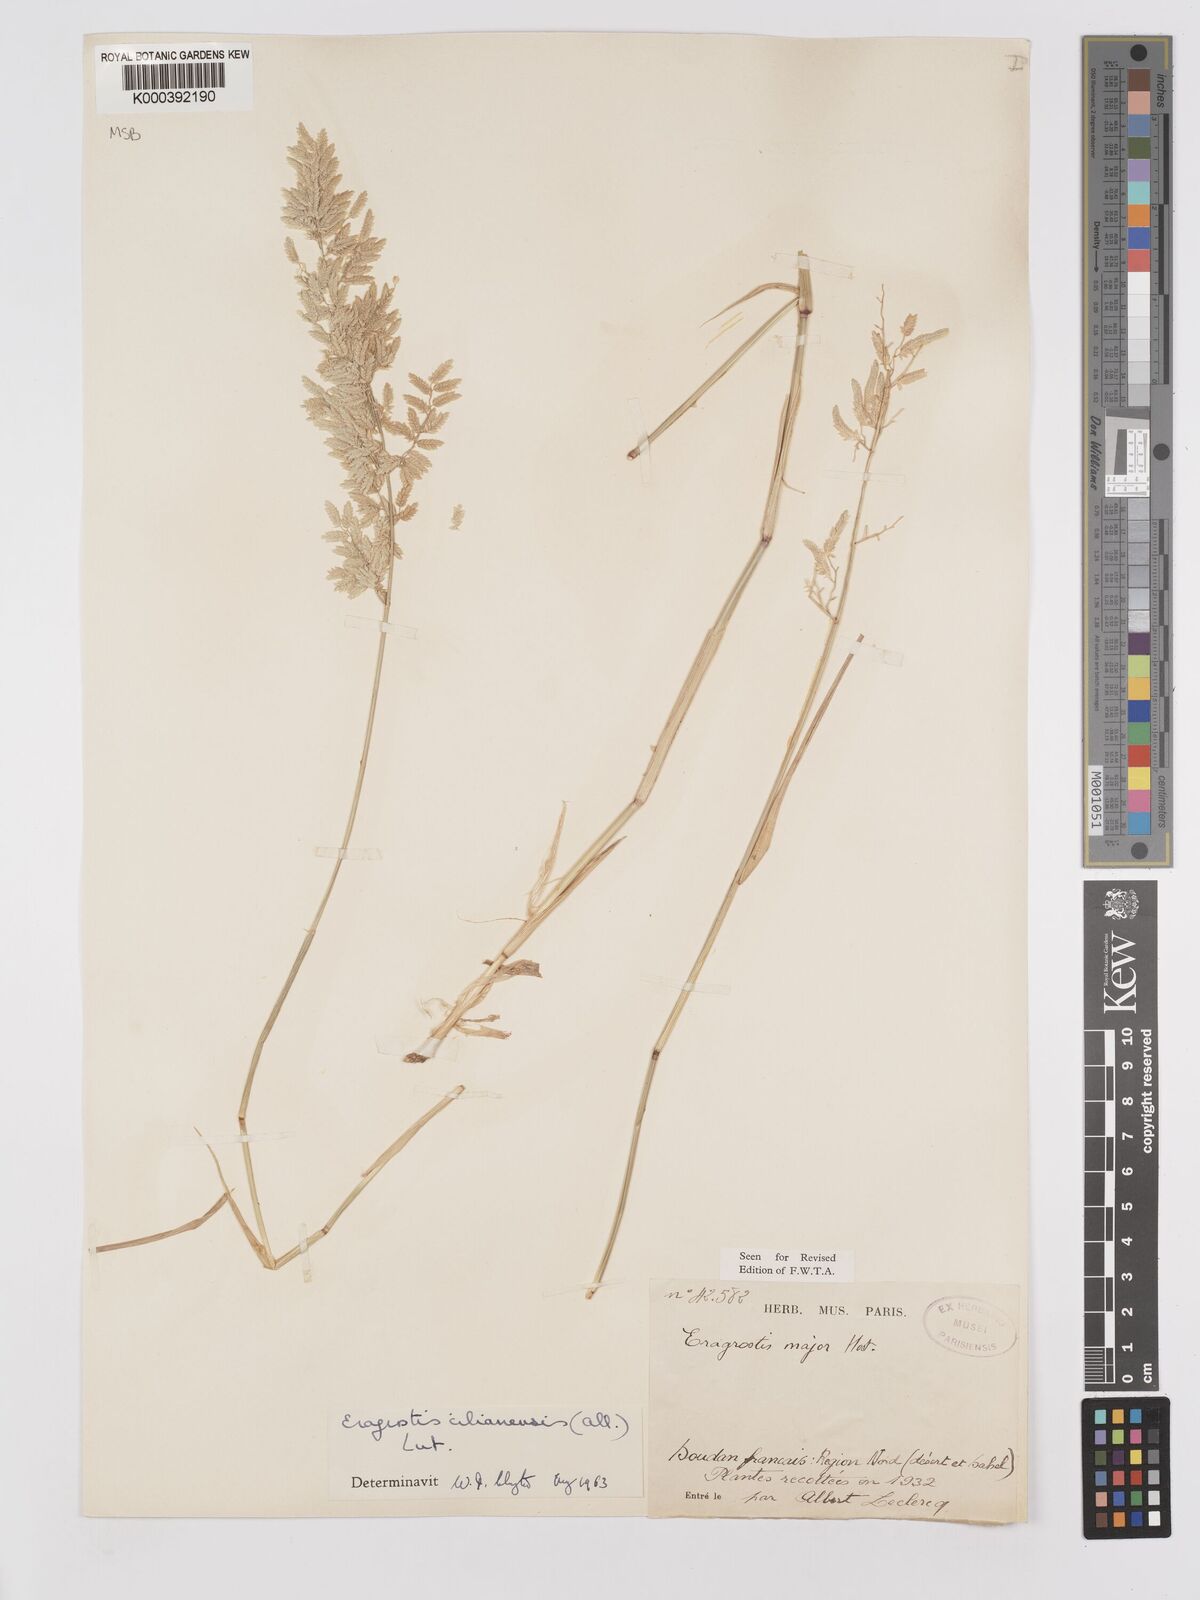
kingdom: Plantae
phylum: Tracheophyta
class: Liliopsida
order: Poales
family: Poaceae
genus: Eragrostis
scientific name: Eragrostis cilianensis
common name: Stinkgrass
